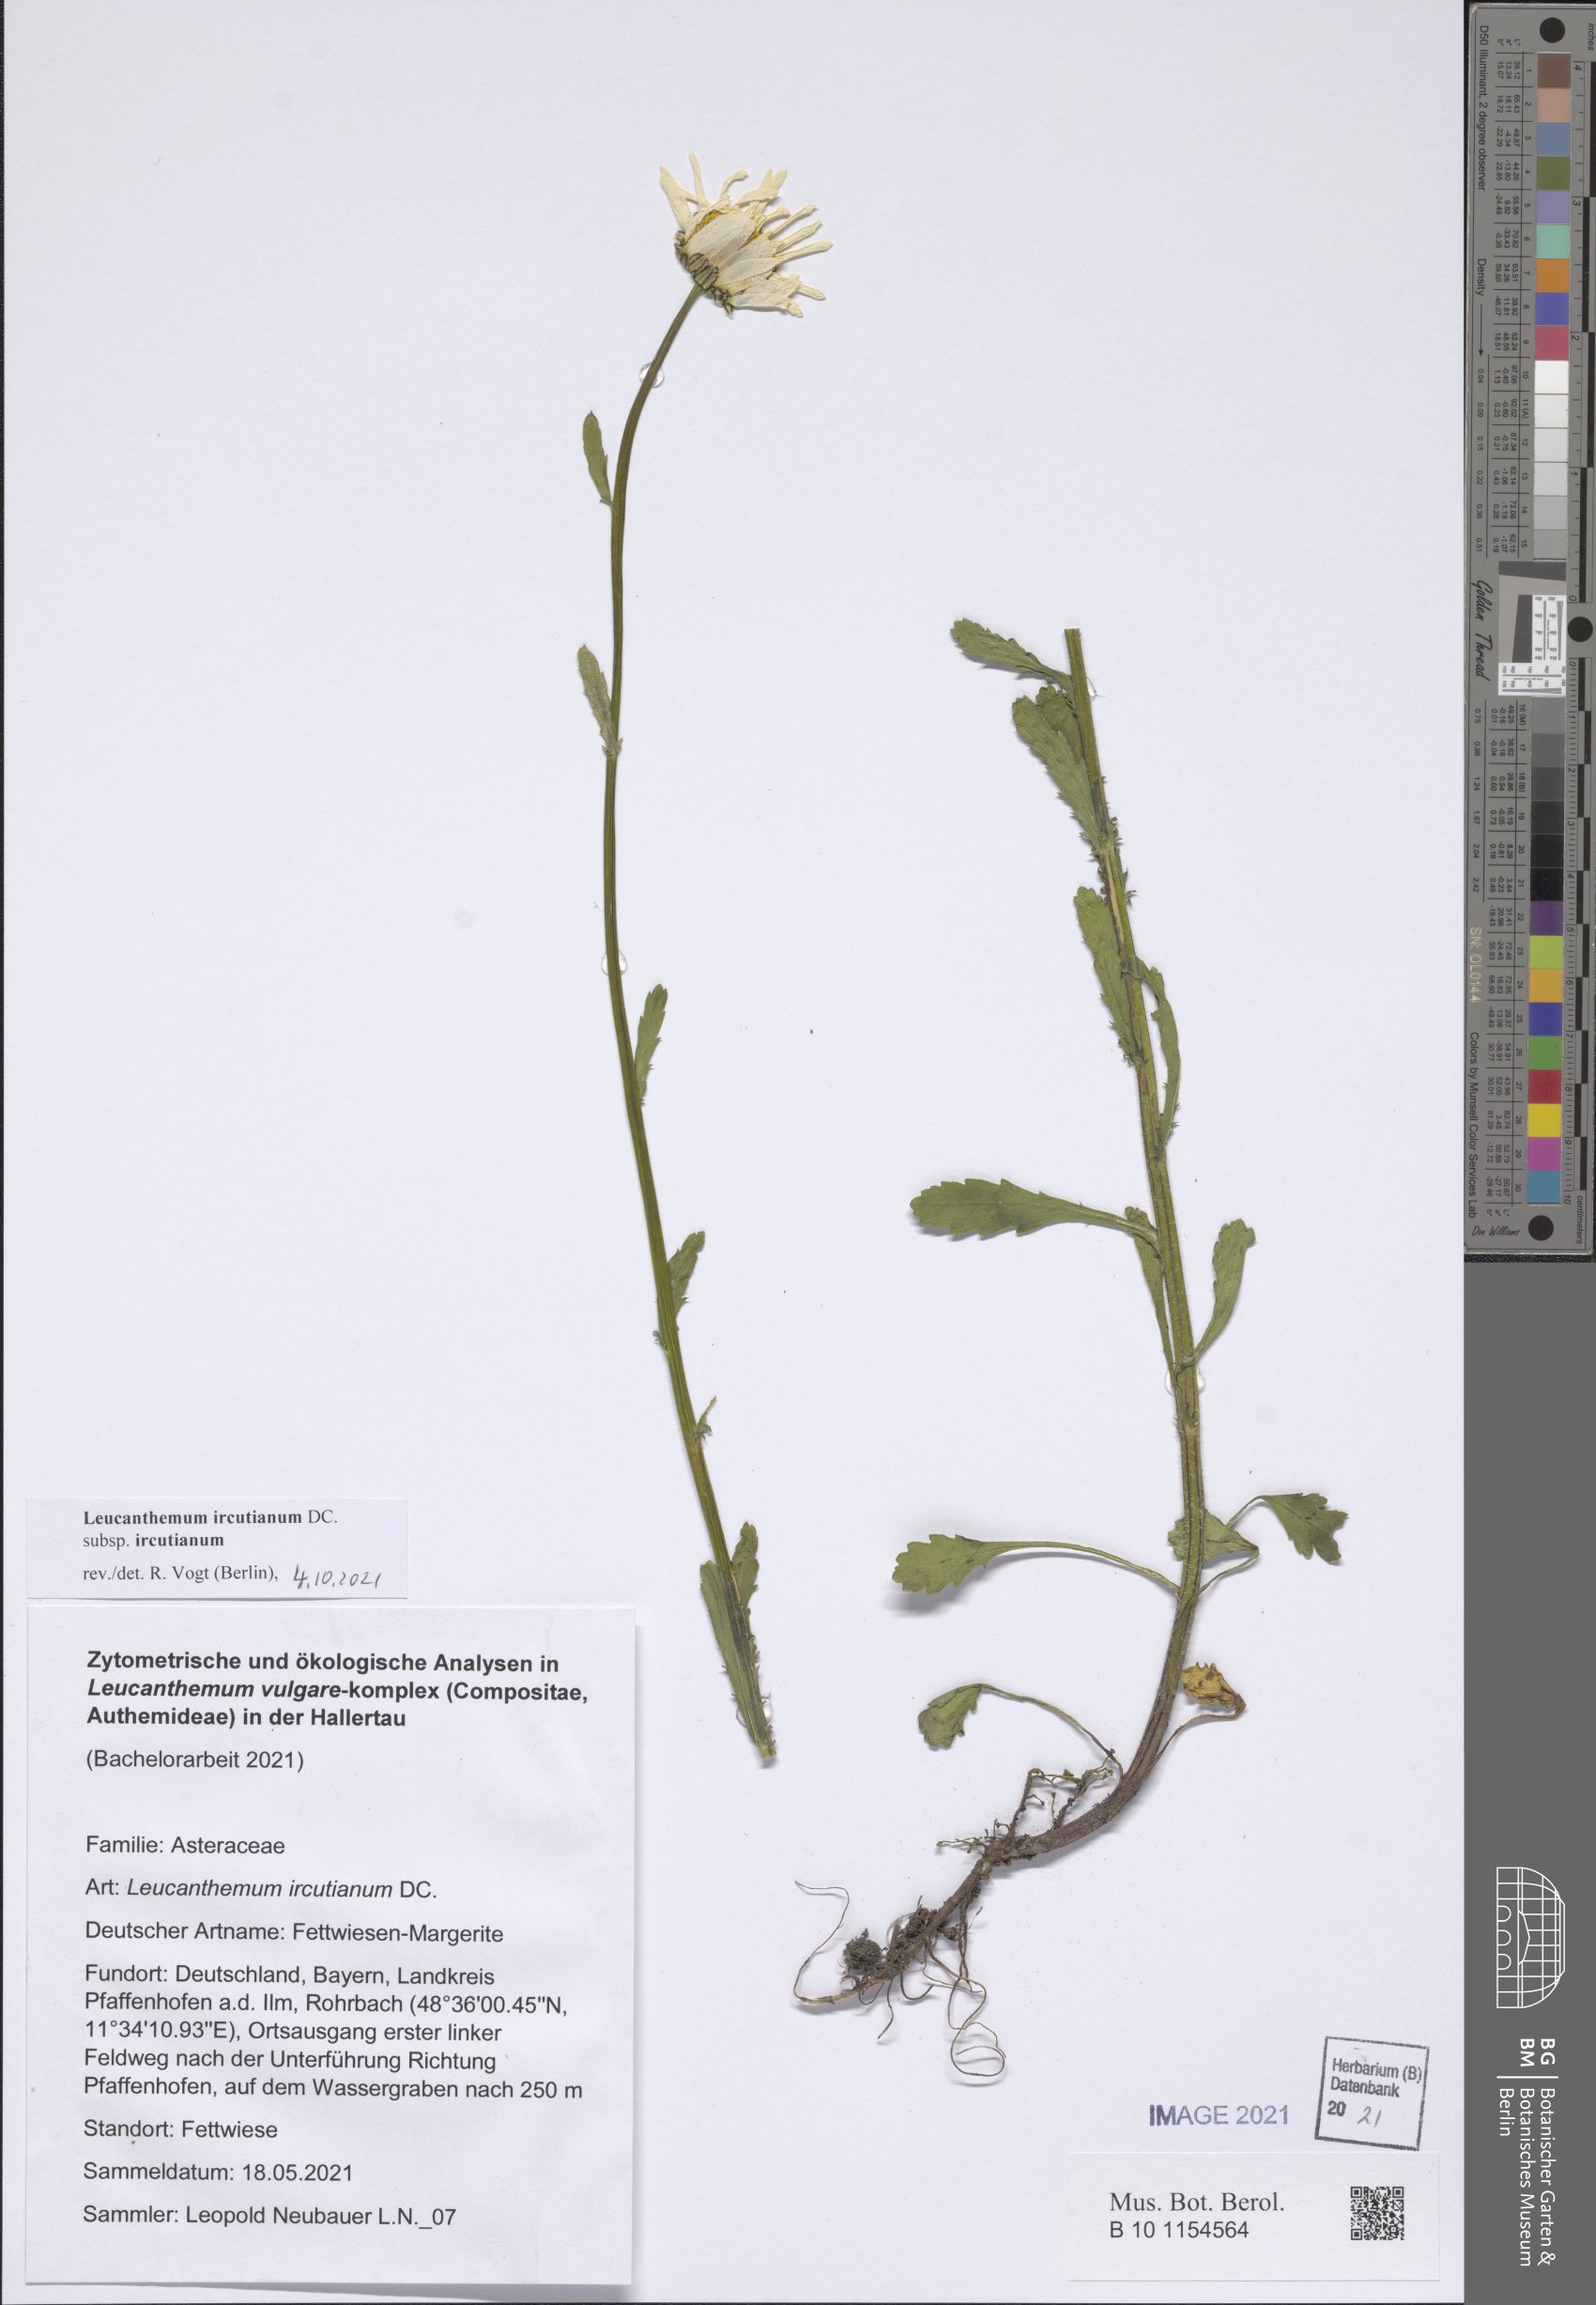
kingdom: Plantae
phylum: Tracheophyta
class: Magnoliopsida
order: Asterales
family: Asteraceae
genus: Leucanthemum
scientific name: Leucanthemum ircutianum
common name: Daisy
